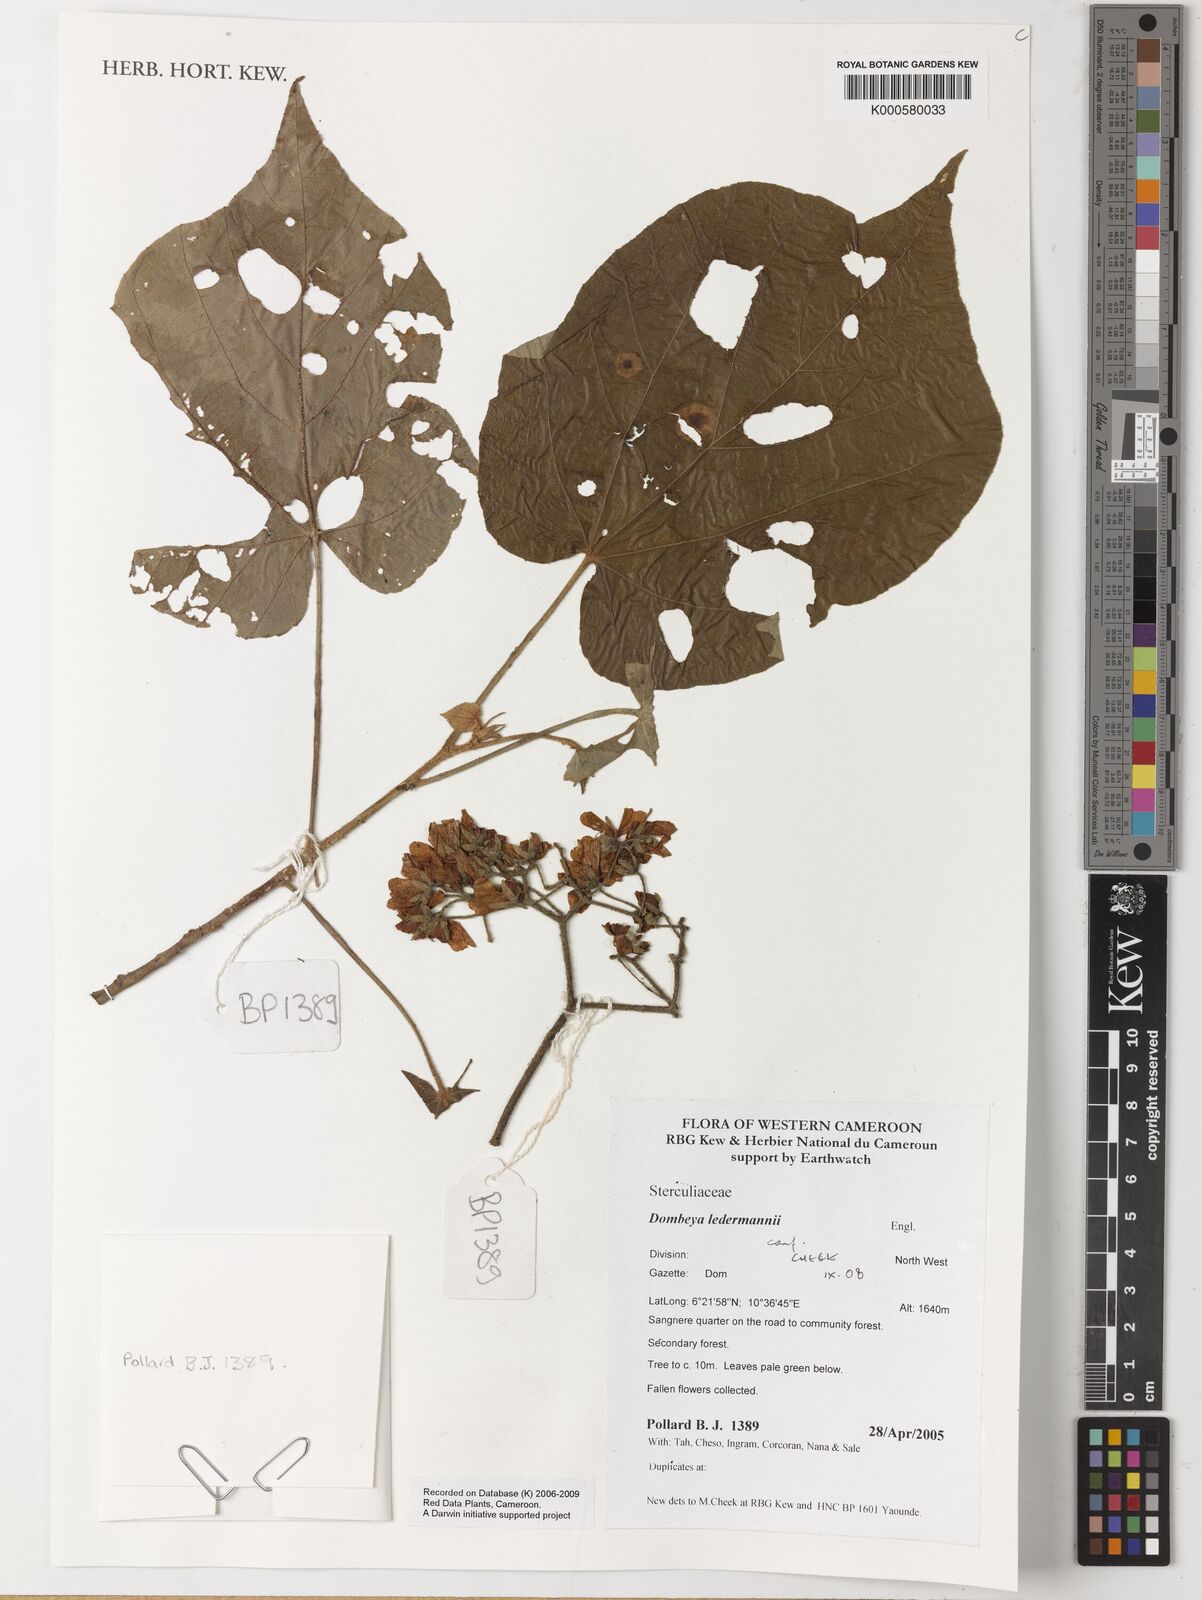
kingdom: Plantae
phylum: Tracheophyta
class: Magnoliopsida
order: Malvales
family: Malvaceae
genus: Dombeya
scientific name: Dombeya ledermannii
